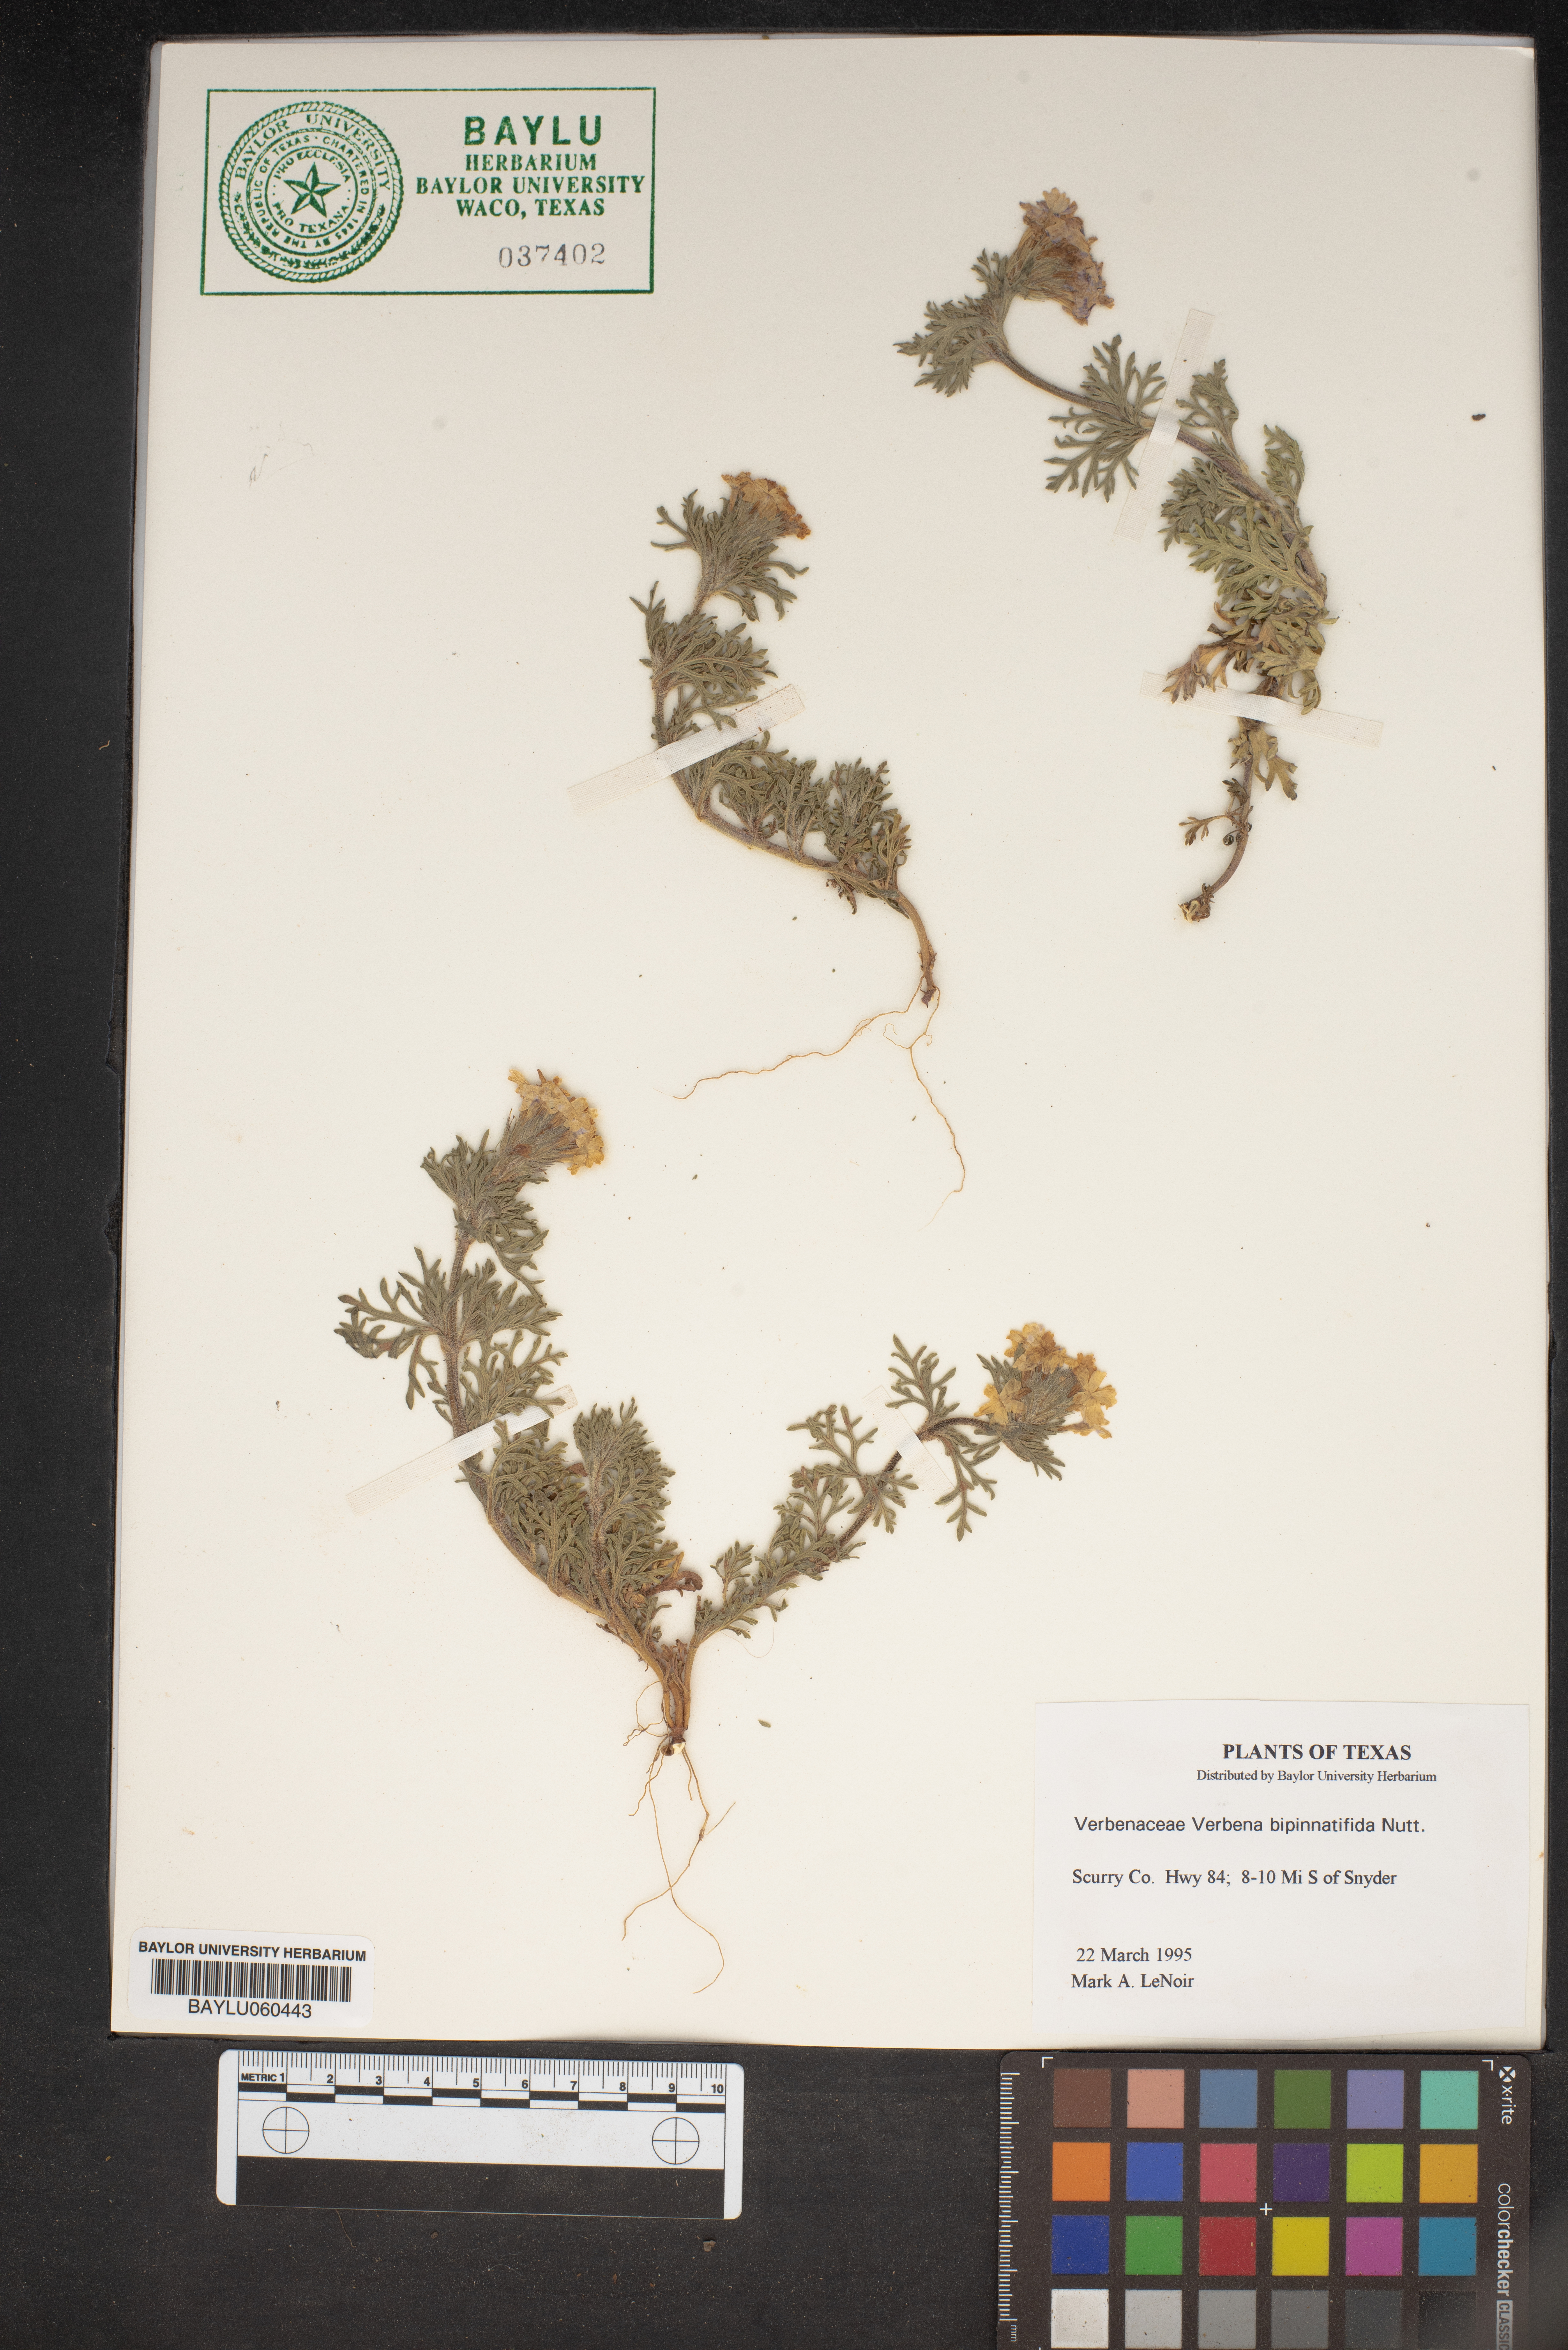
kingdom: Plantae
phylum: Tracheophyta
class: Magnoliopsida
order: Lamiales
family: Verbenaceae
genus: Verbena
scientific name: Verbena bipinnatifida
